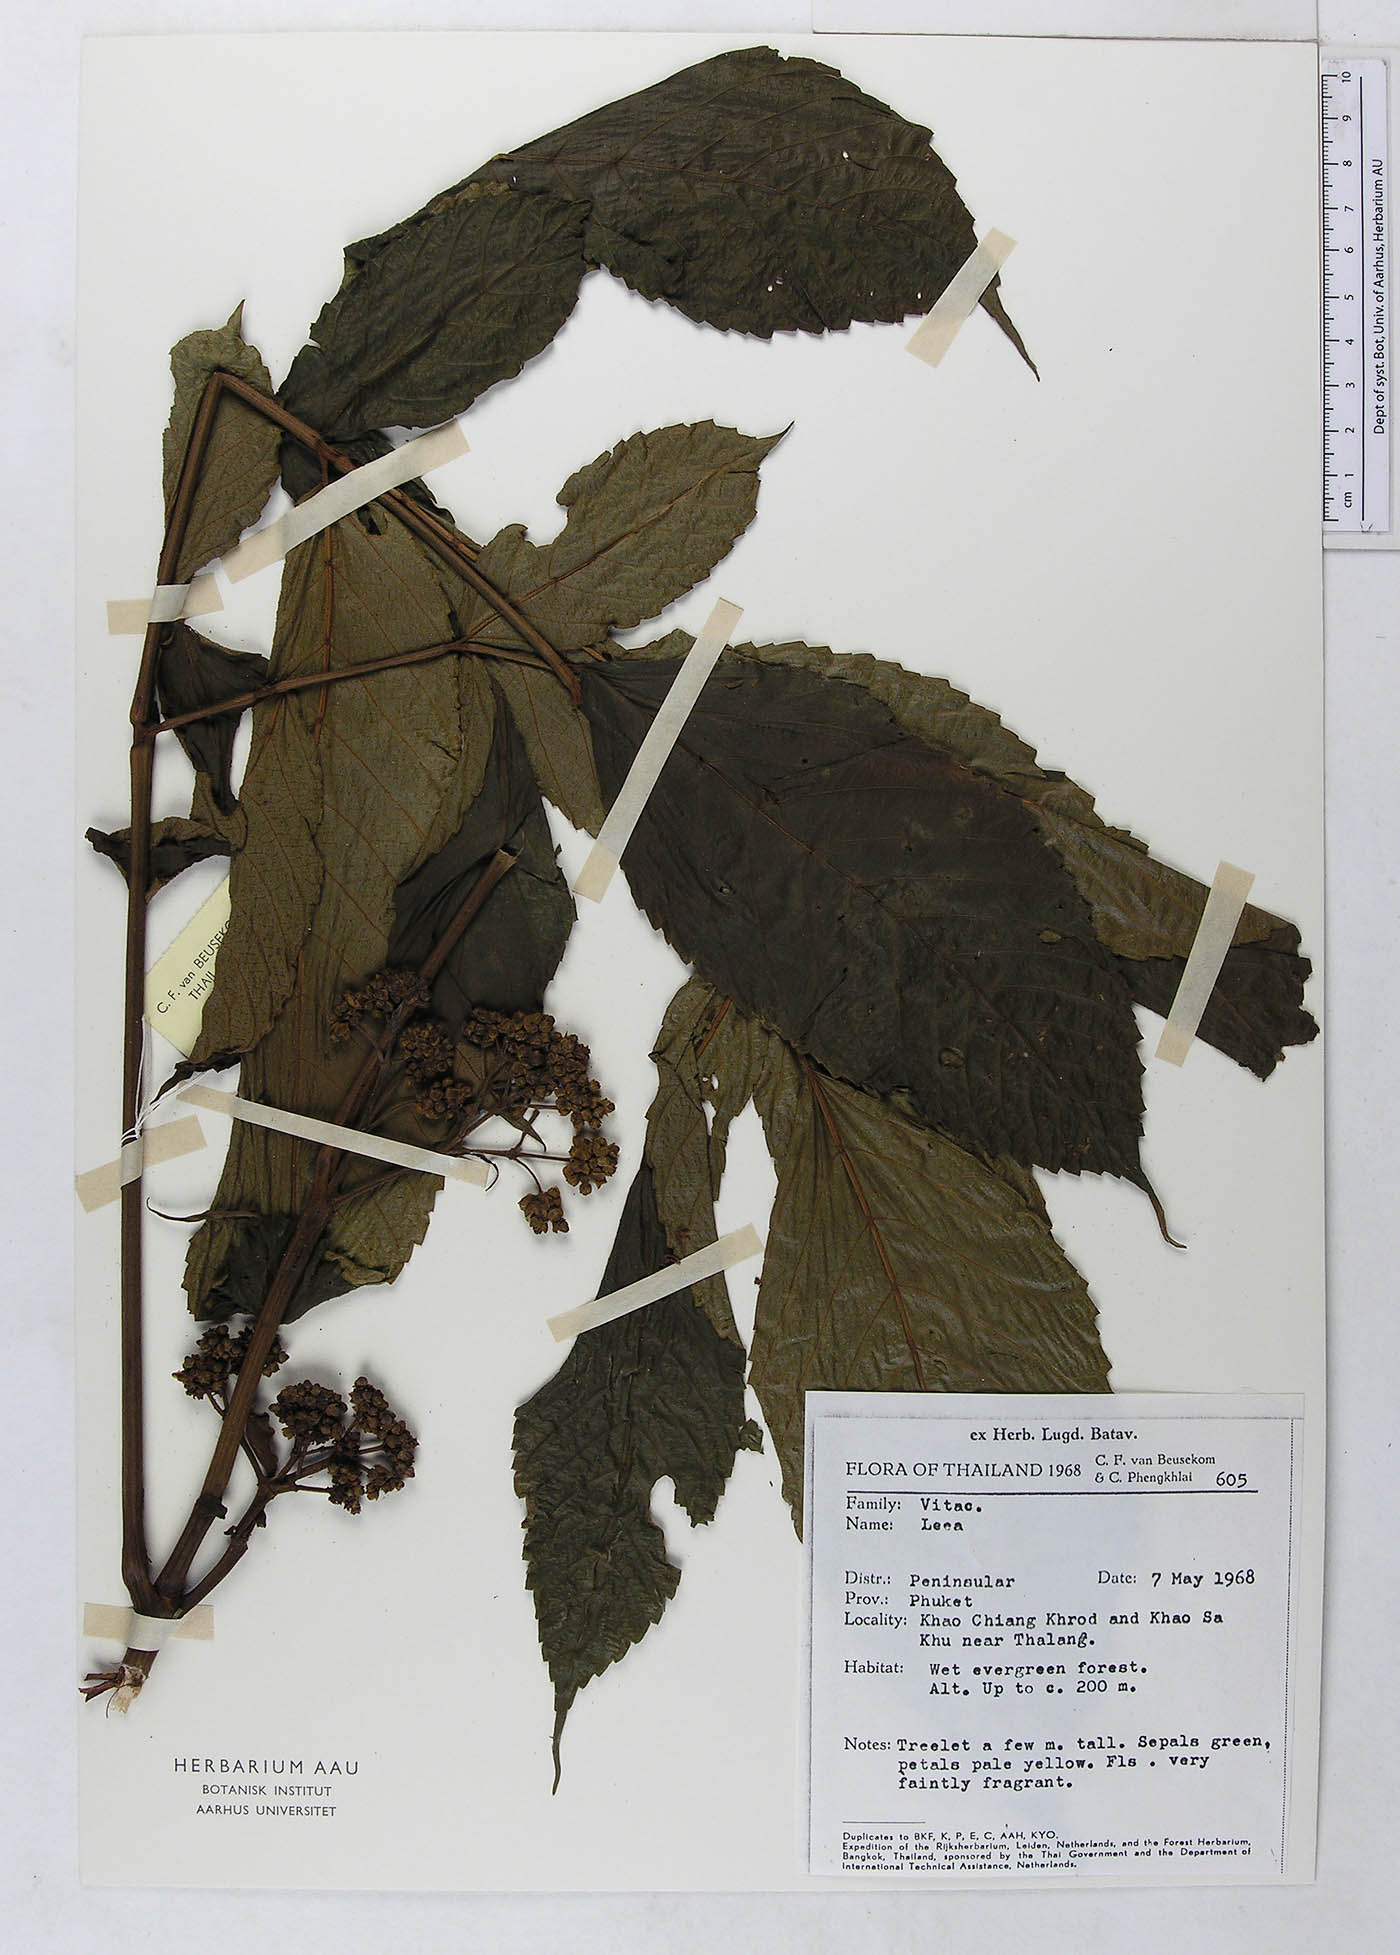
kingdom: Plantae
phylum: Tracheophyta
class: Magnoliopsida
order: Vitales
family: Vitaceae
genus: Leea
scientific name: Leea
